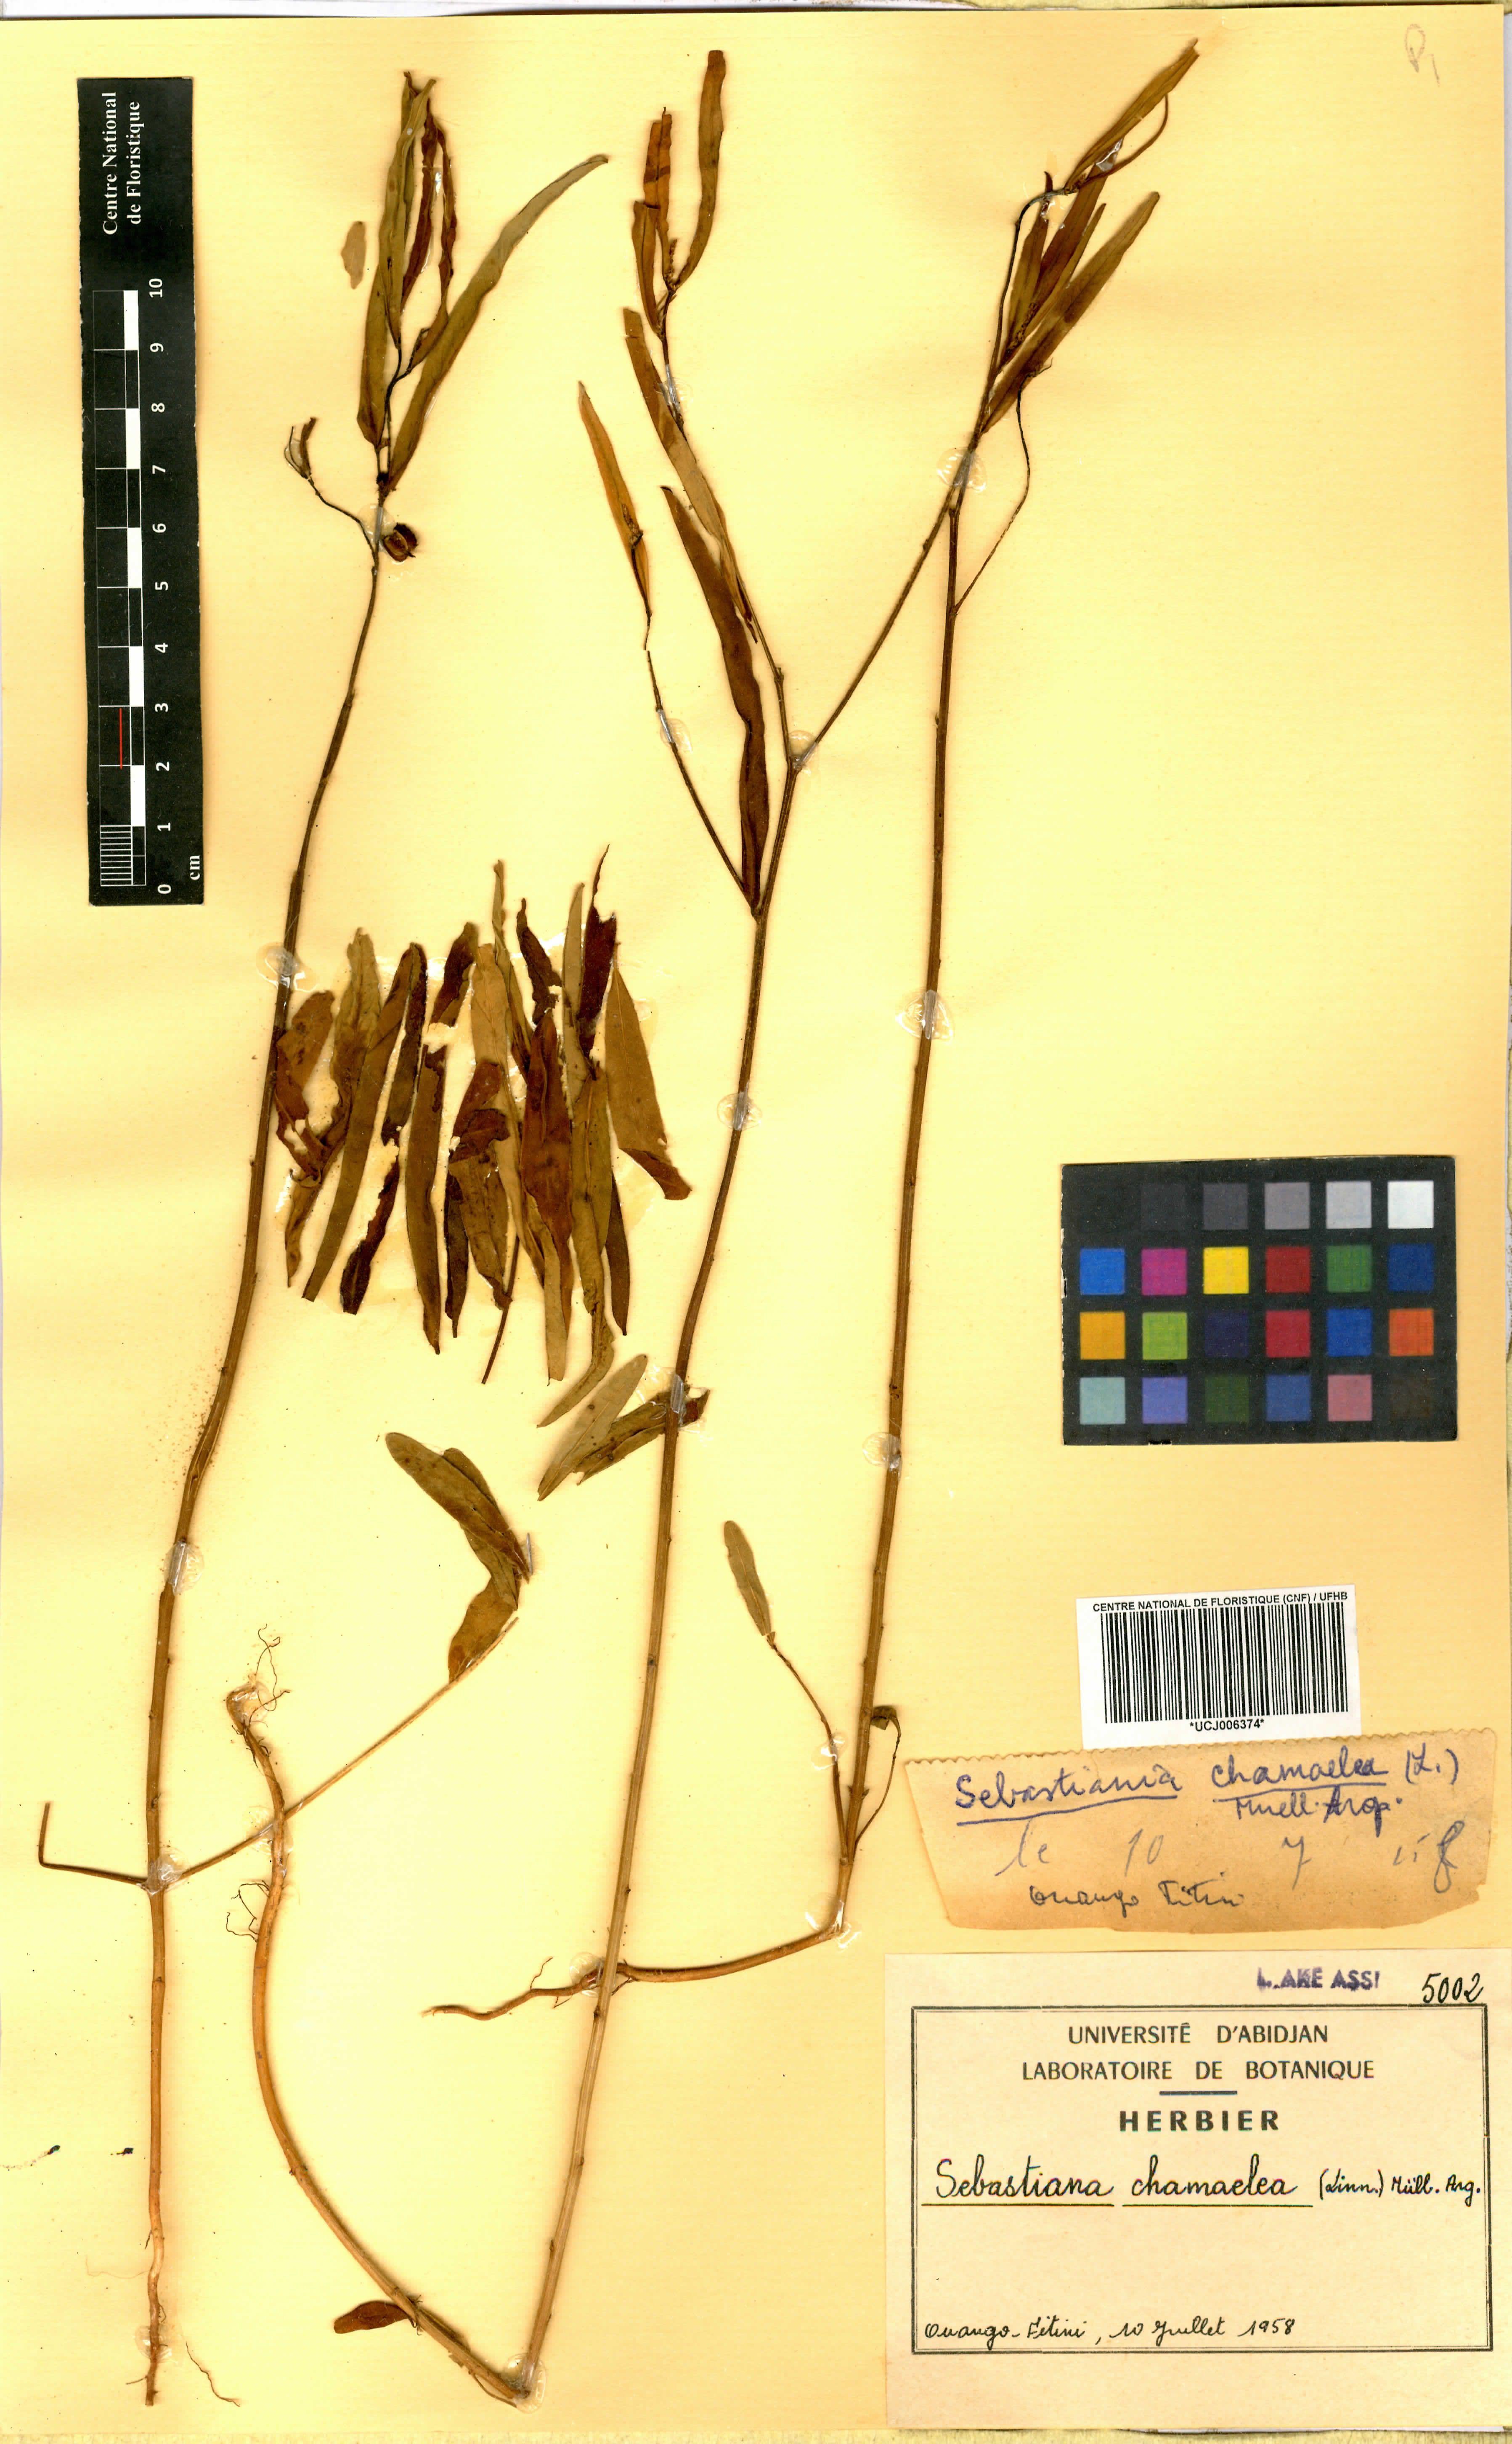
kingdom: Plantae
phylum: Tracheophyta
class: Magnoliopsida
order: Malpighiales
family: Euphorbiaceae
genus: Microstachys
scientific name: Microstachys chamaelea
